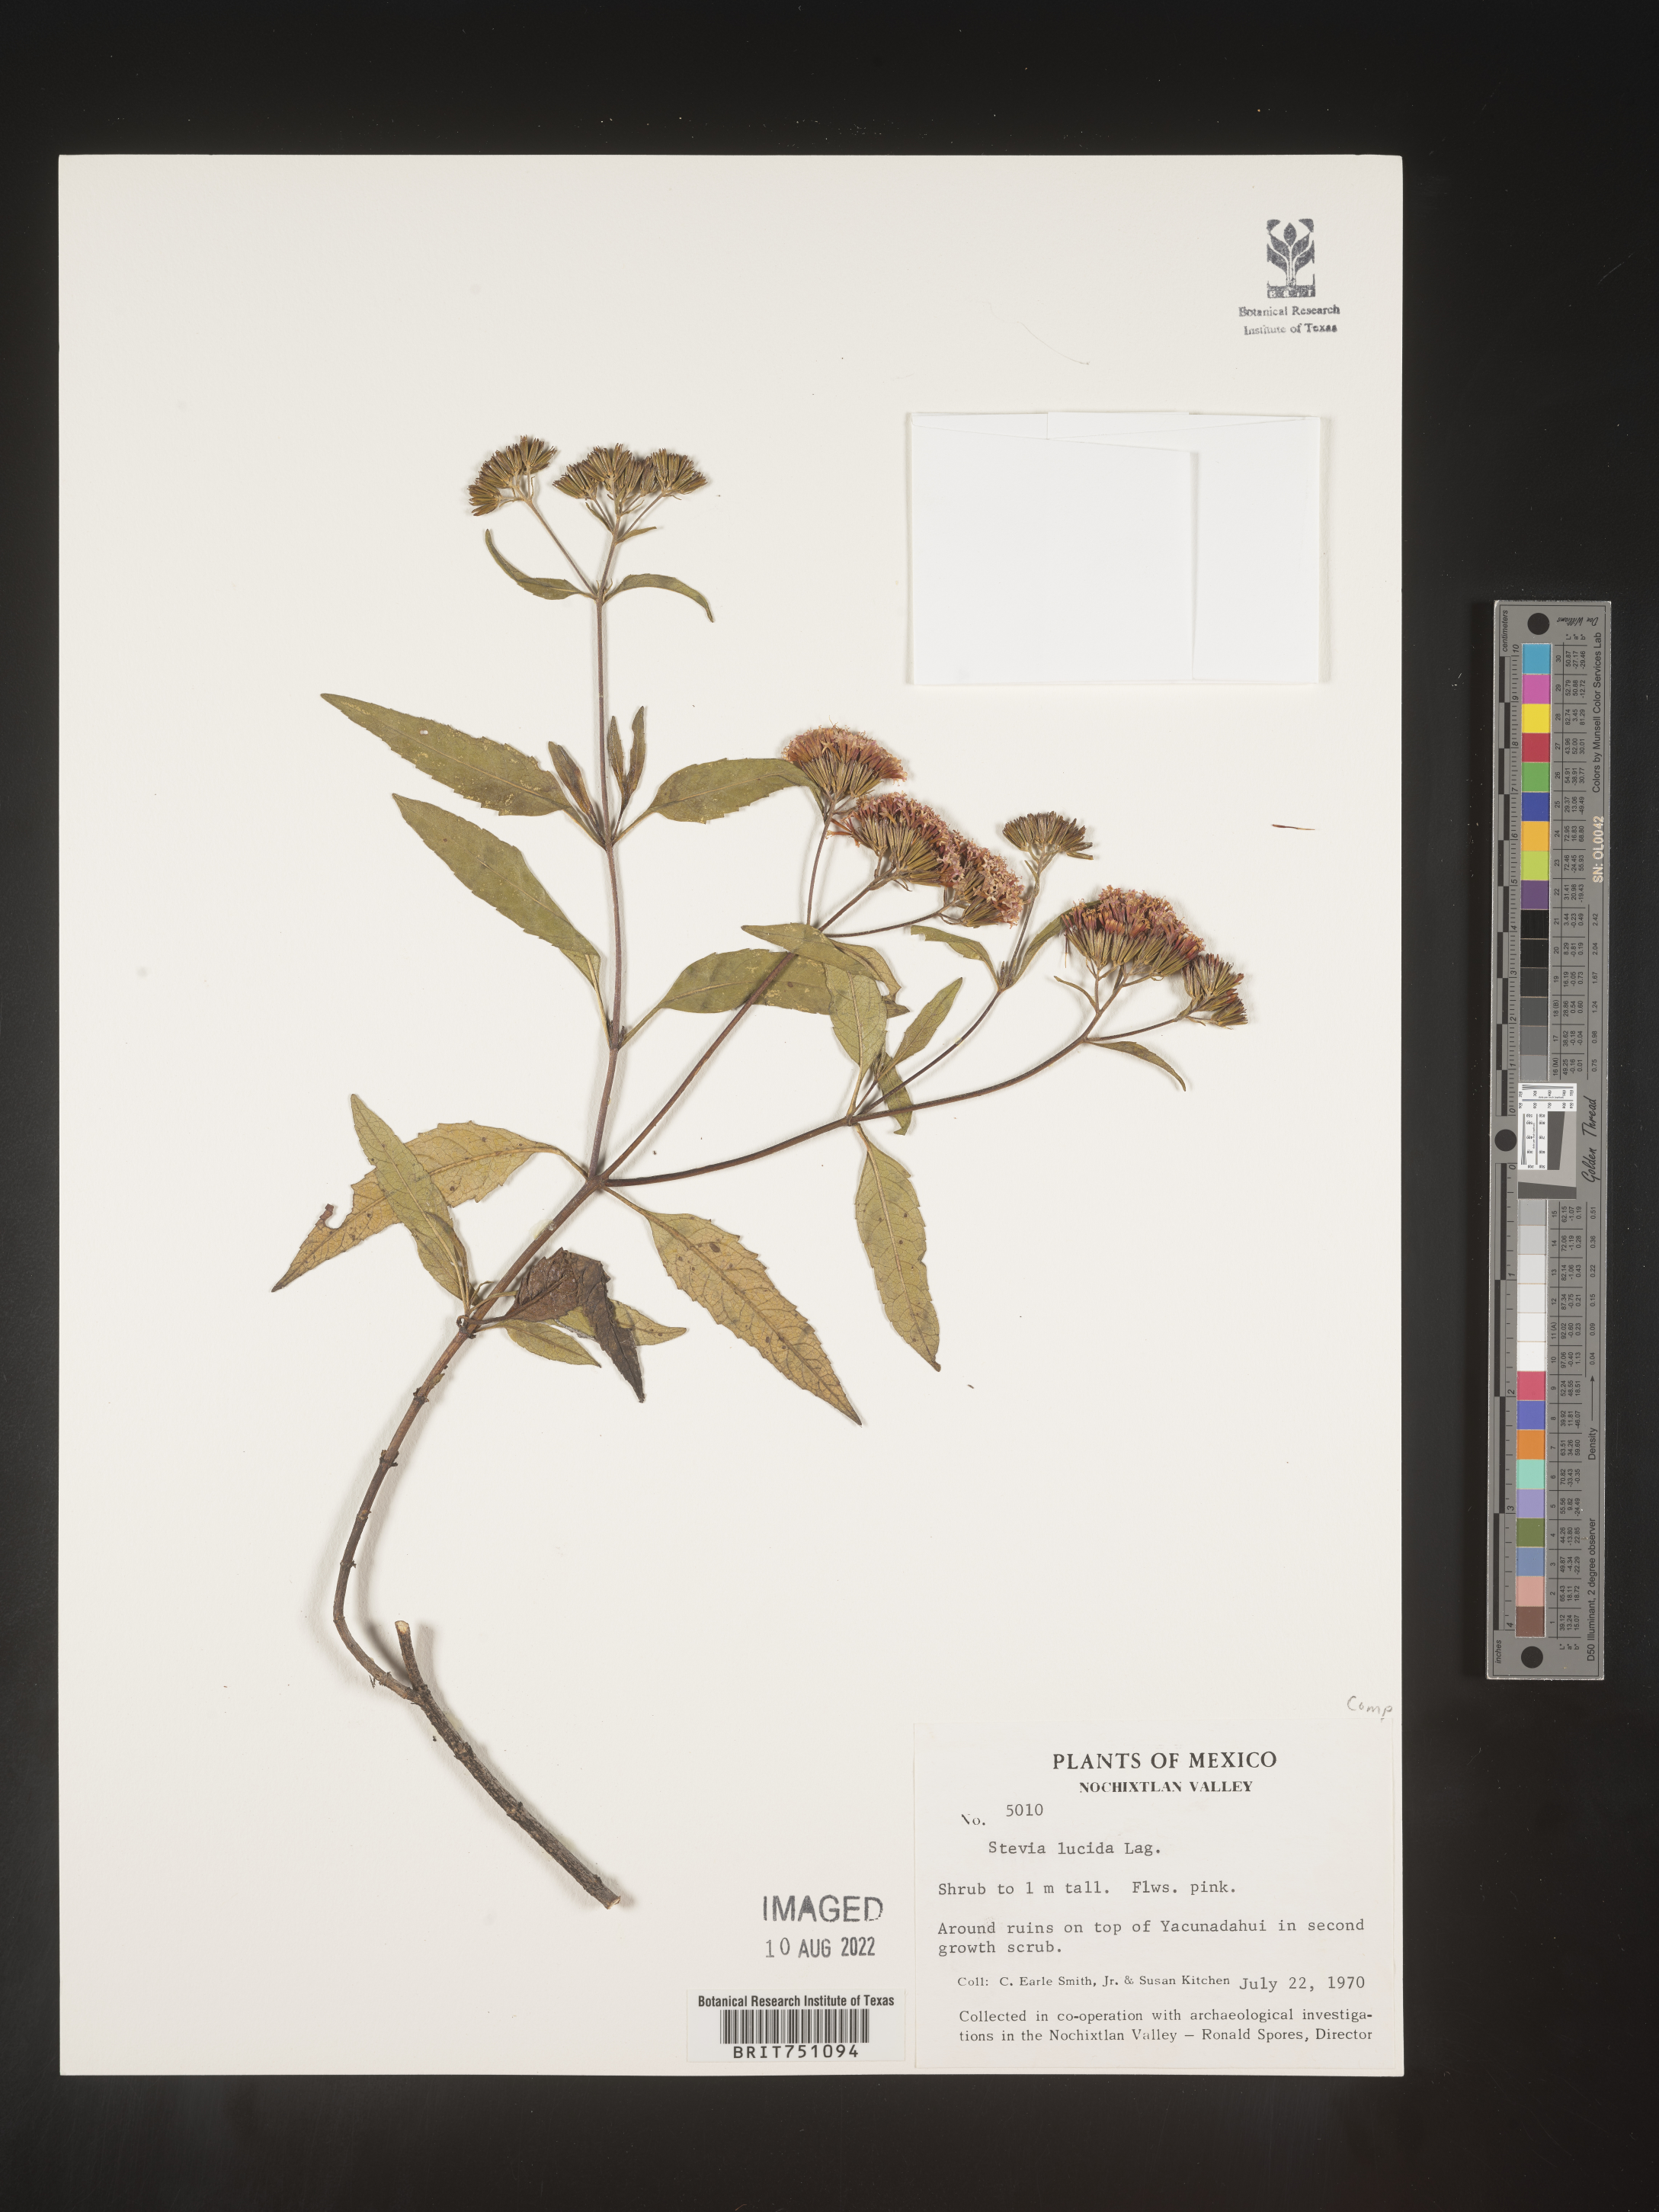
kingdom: Plantae
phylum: Tracheophyta
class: Magnoliopsida
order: Asterales
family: Asteraceae
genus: Stevia
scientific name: Stevia
